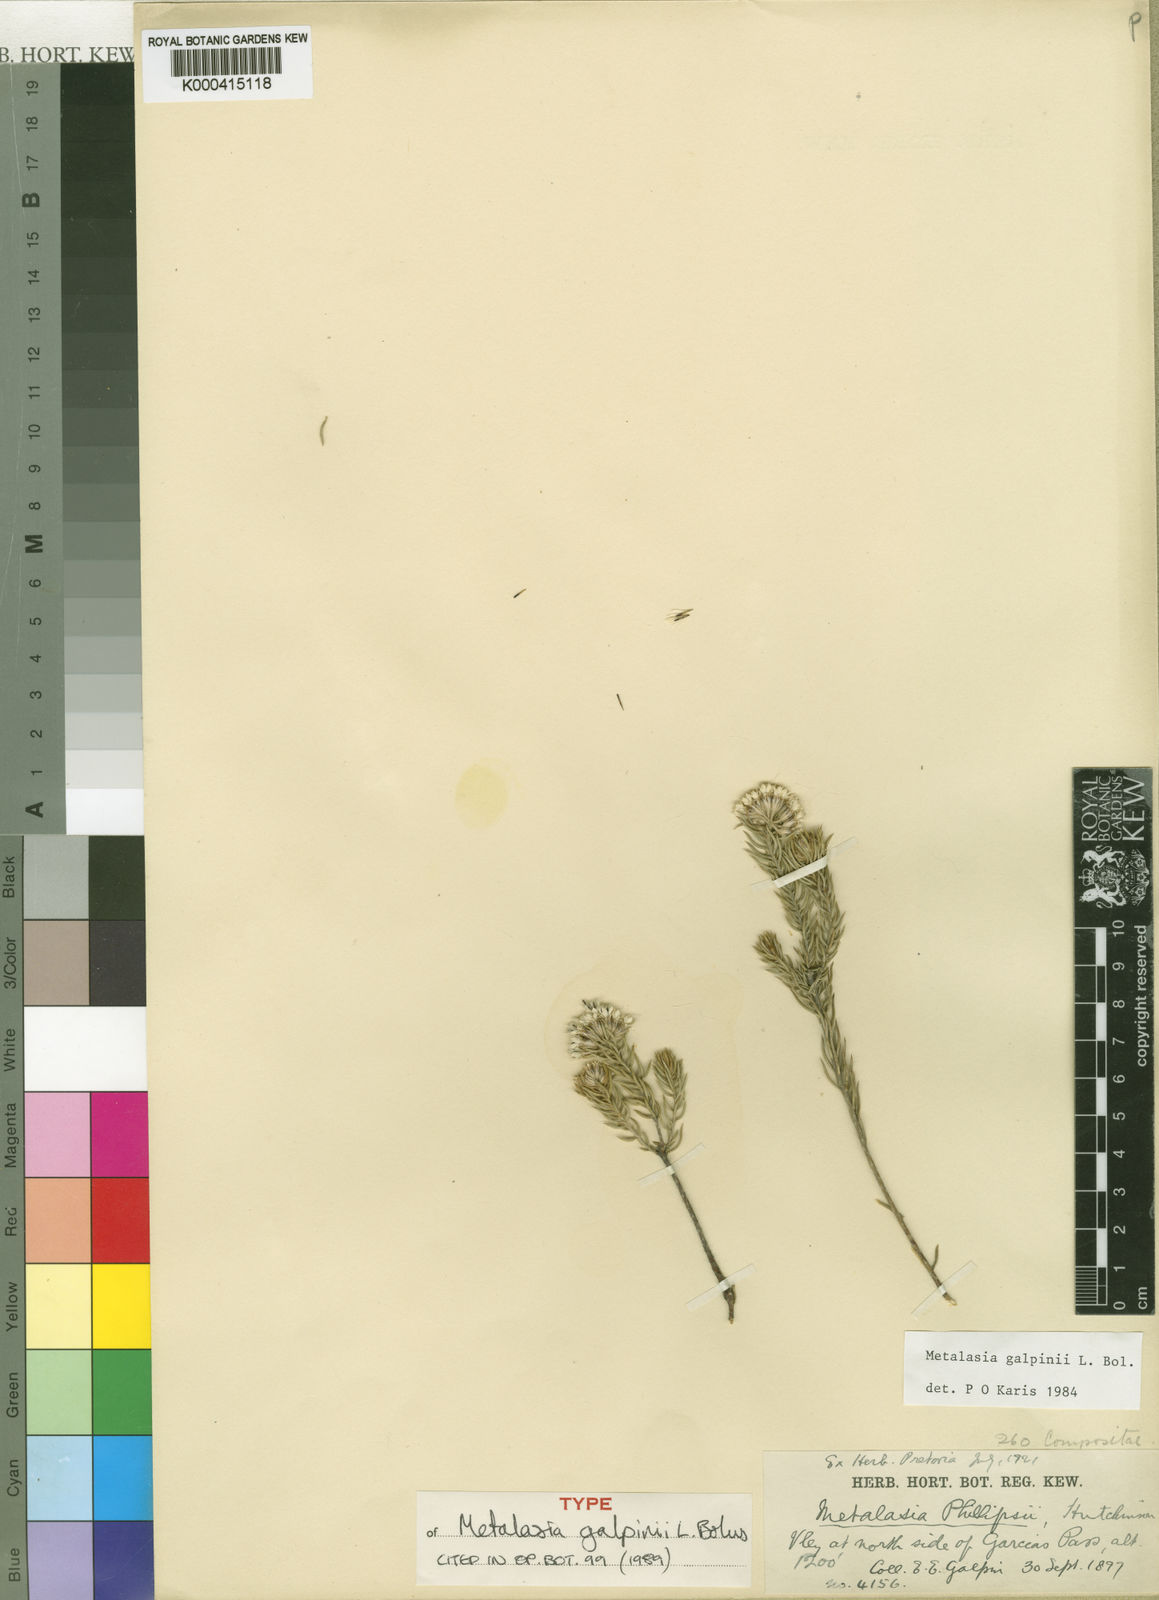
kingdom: Plantae
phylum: Tracheophyta
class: Magnoliopsida
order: Asterales
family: Asteraceae
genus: Metalasia
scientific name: Metalasia galpinii
